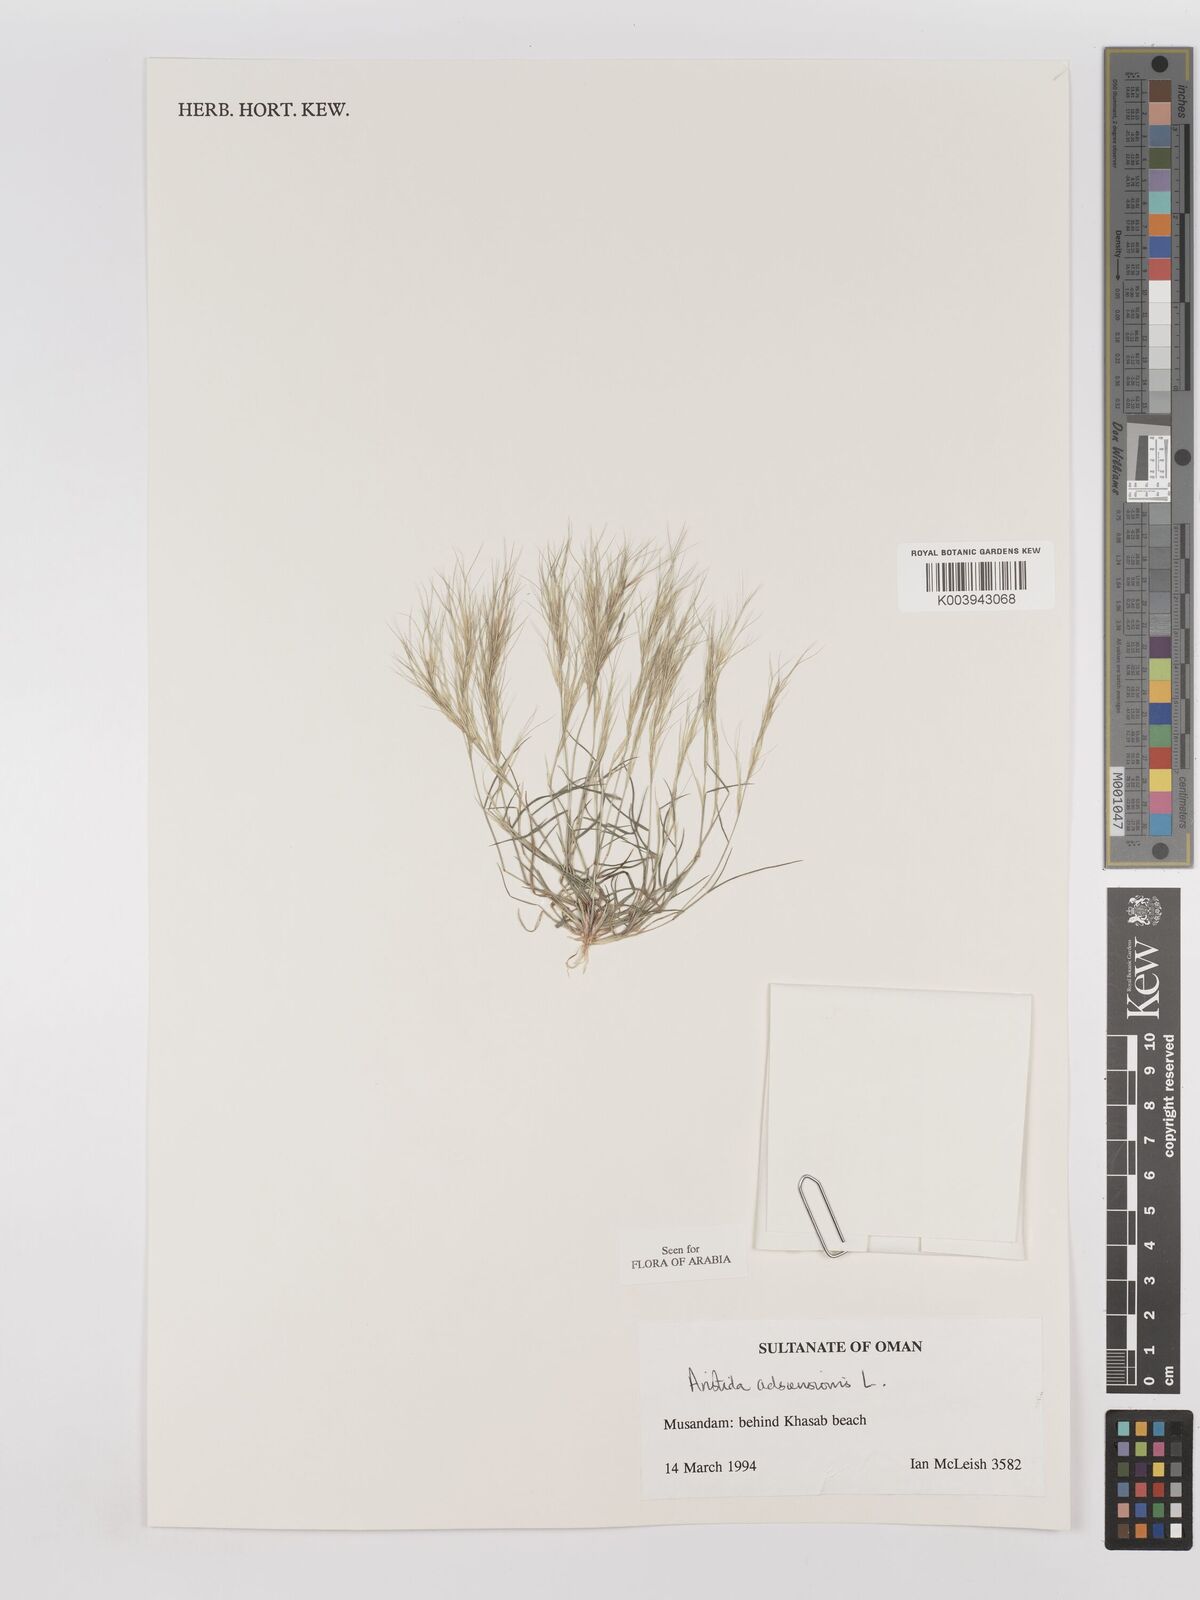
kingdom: Plantae
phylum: Tracheophyta
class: Liliopsida
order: Poales
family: Poaceae
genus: Aristida
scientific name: Aristida adscensionis
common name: Sixweeks threeawn
